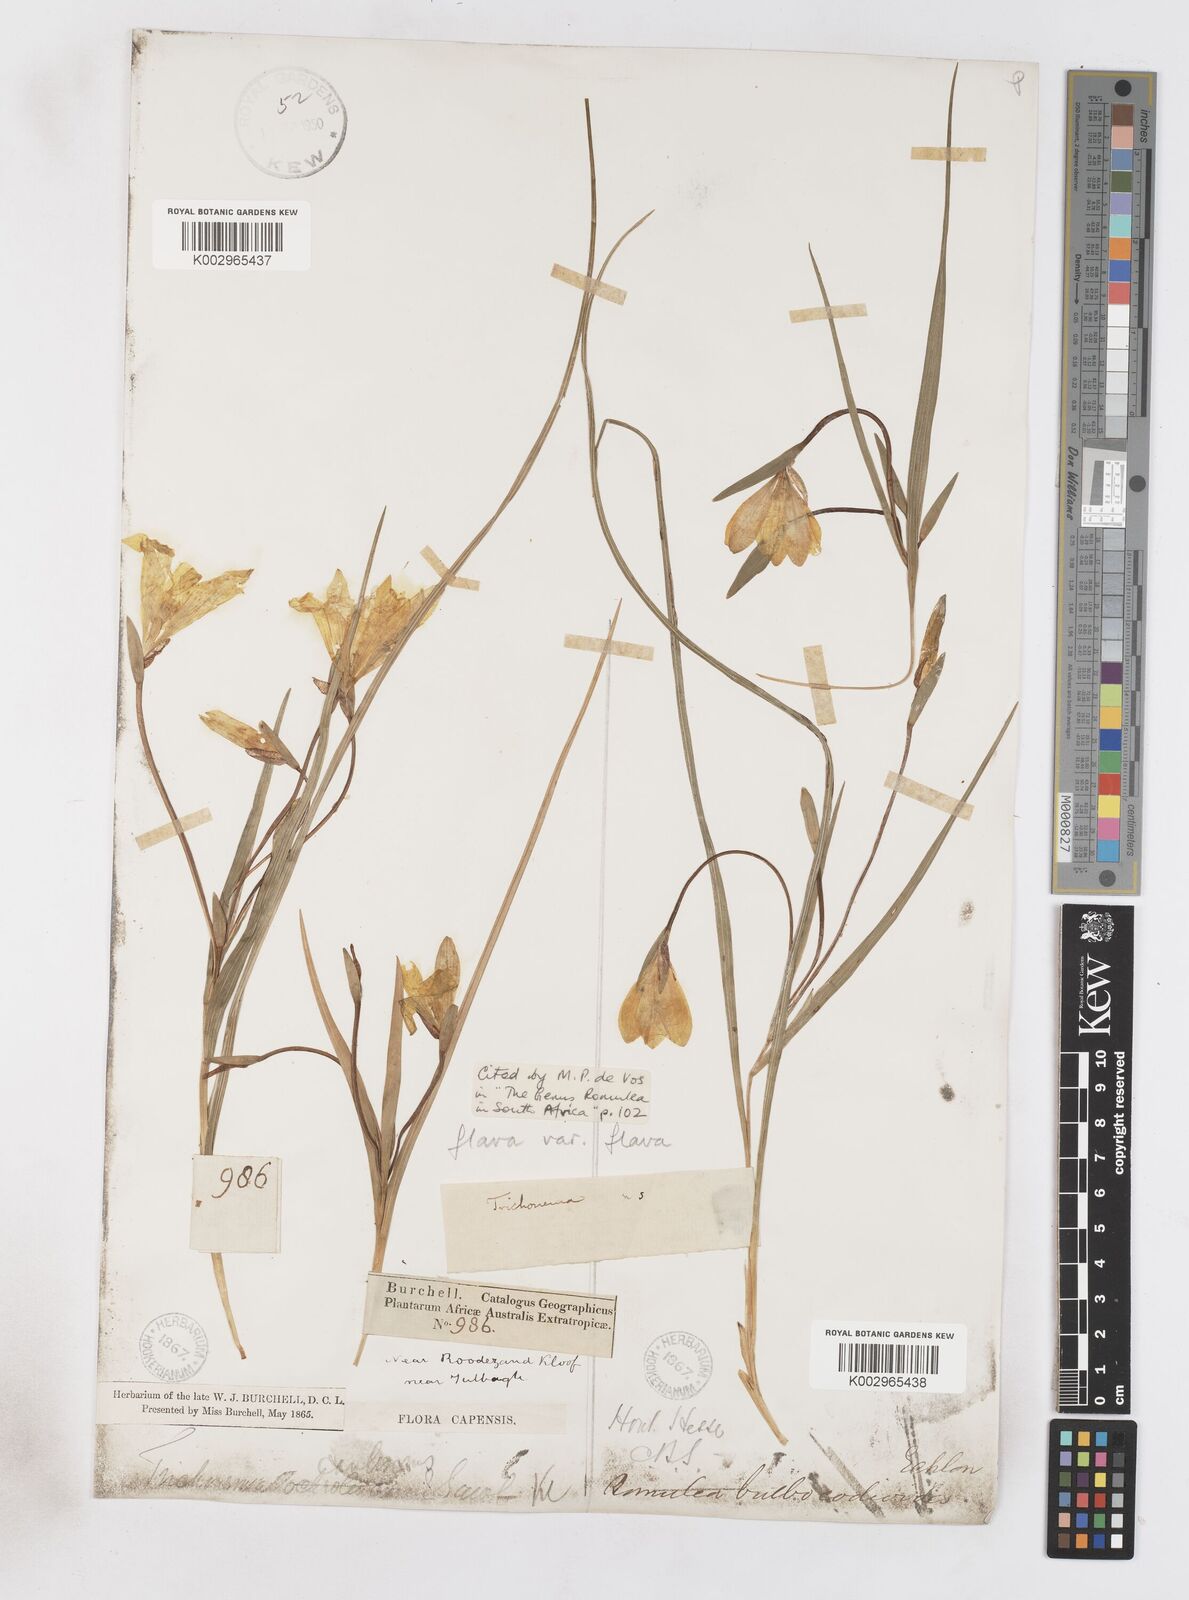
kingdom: Plantae
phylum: Tracheophyta
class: Liliopsida
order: Asparagales
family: Iridaceae
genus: Romulea
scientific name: Romulea flava
